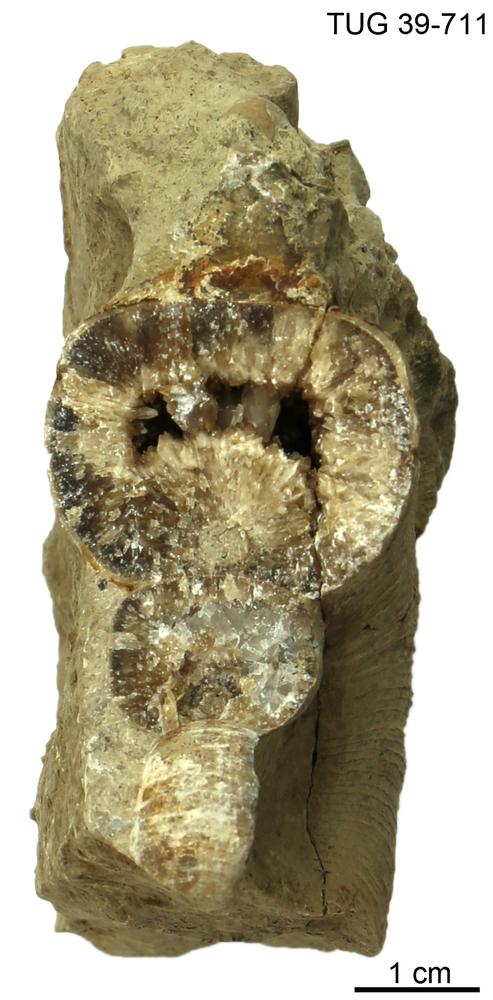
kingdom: Animalia
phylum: Mollusca
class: Cephalopoda
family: Trocholitidae
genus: Discoceras
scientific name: Discoceras
